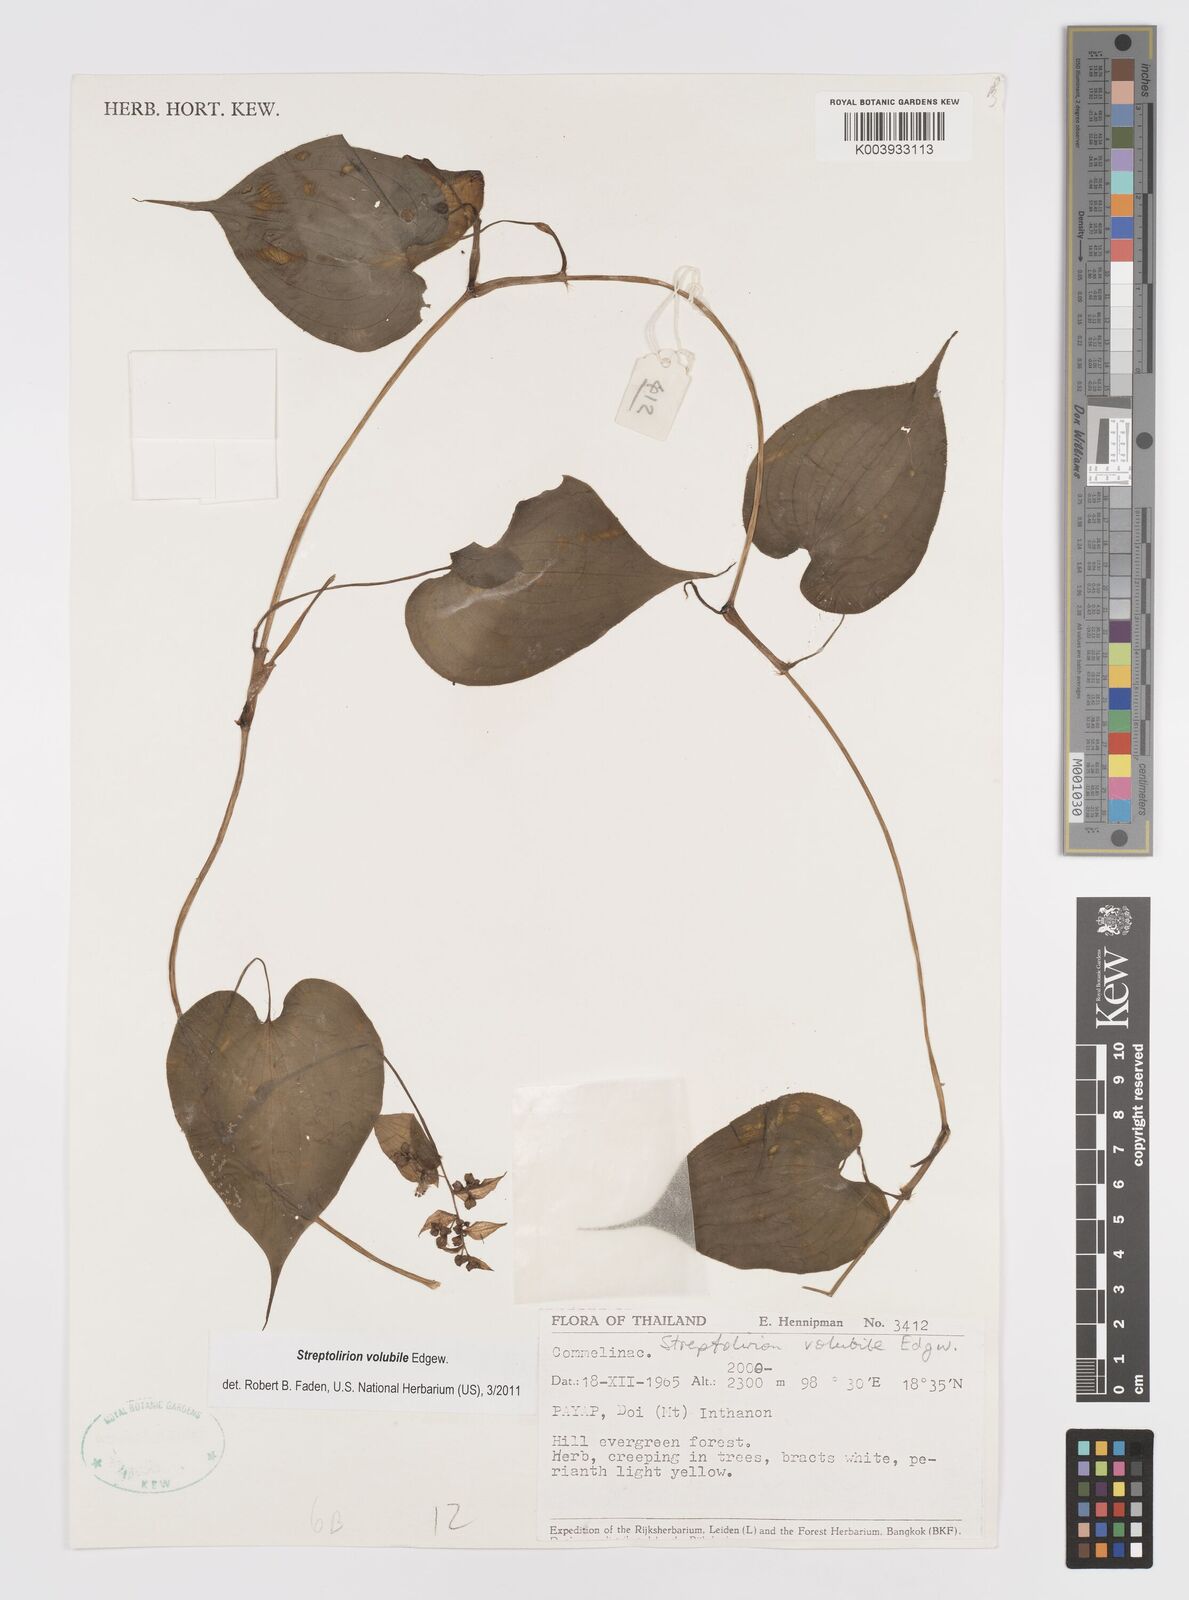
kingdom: Plantae
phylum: Tracheophyta
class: Liliopsida
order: Commelinales
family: Commelinaceae
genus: Streptolirion
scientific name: Streptolirion volubile
